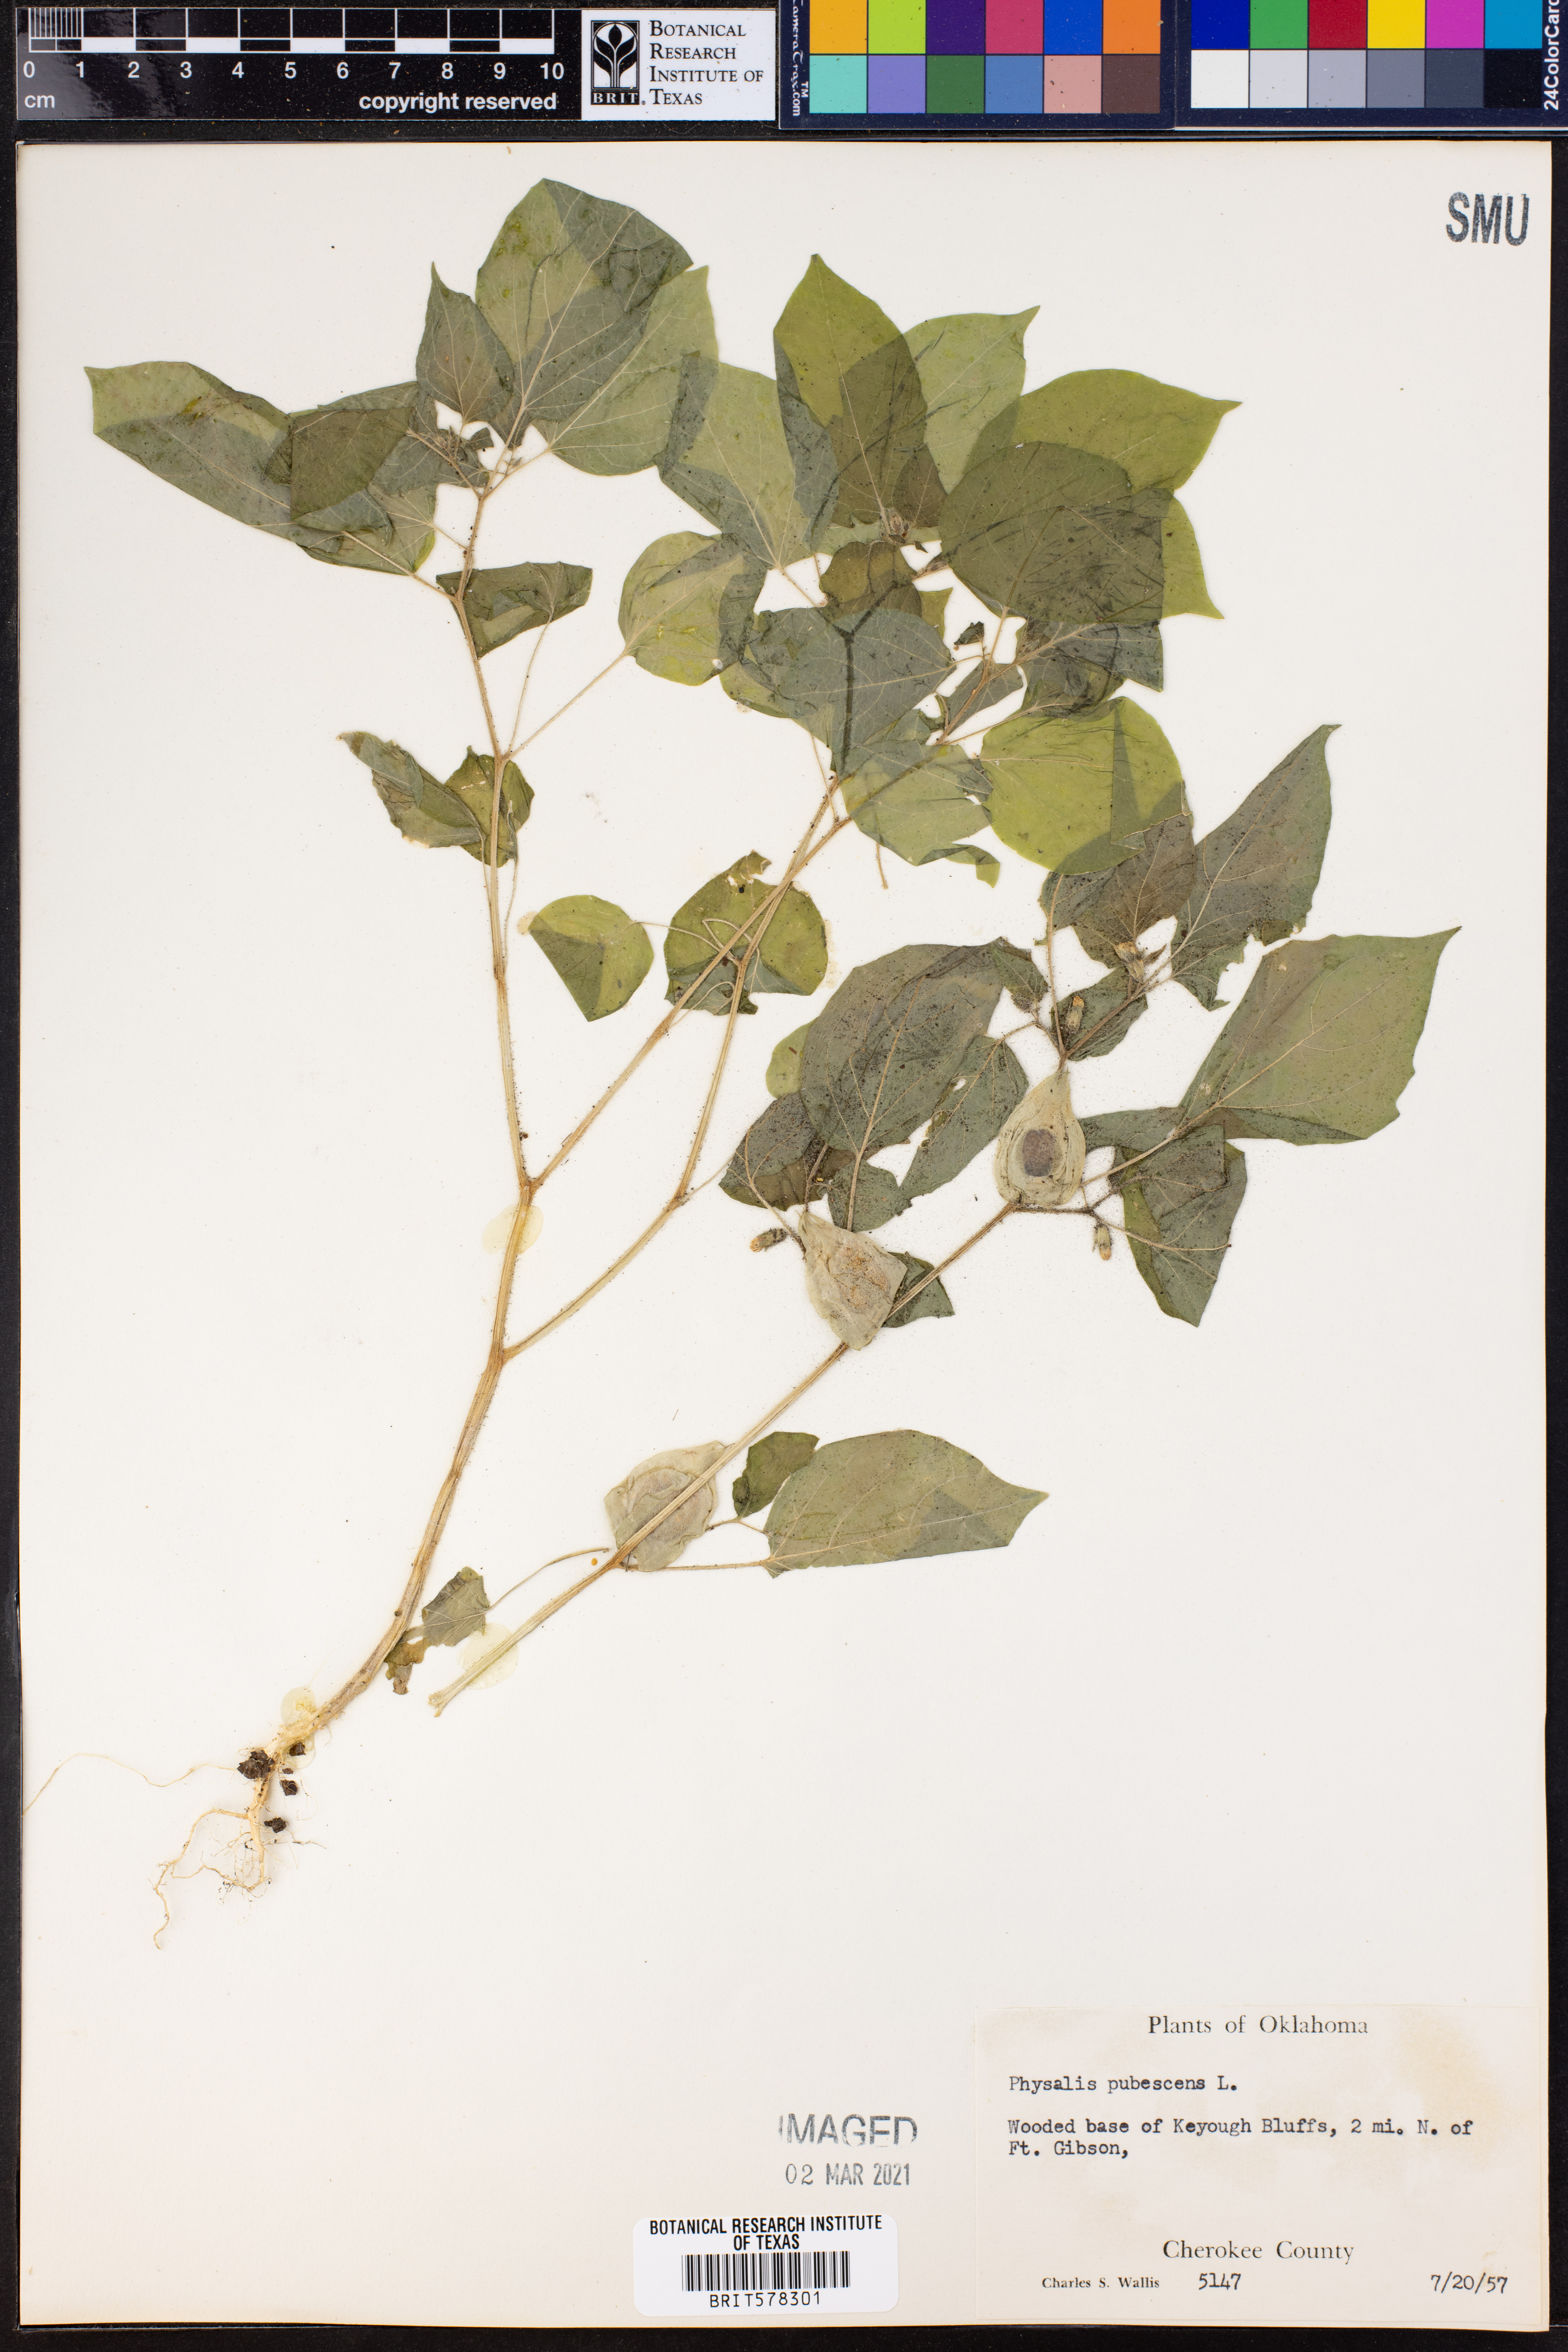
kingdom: Plantae
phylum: Tracheophyta
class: Magnoliopsida
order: Solanales
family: Solanaceae
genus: Physalis
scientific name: Physalis pubescens
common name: Downy ground-cherry
